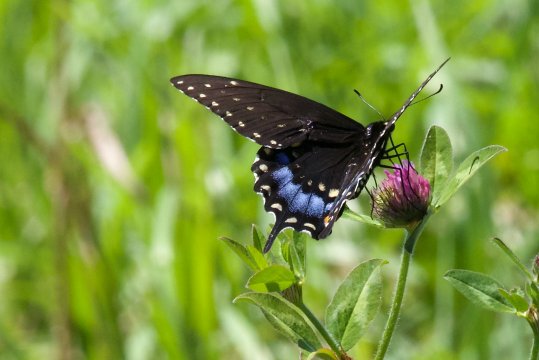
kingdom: Animalia
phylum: Arthropoda
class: Insecta
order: Lepidoptera
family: Papilionidae
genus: Papilio
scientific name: Papilio polyxenes
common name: Black Swallowtail
